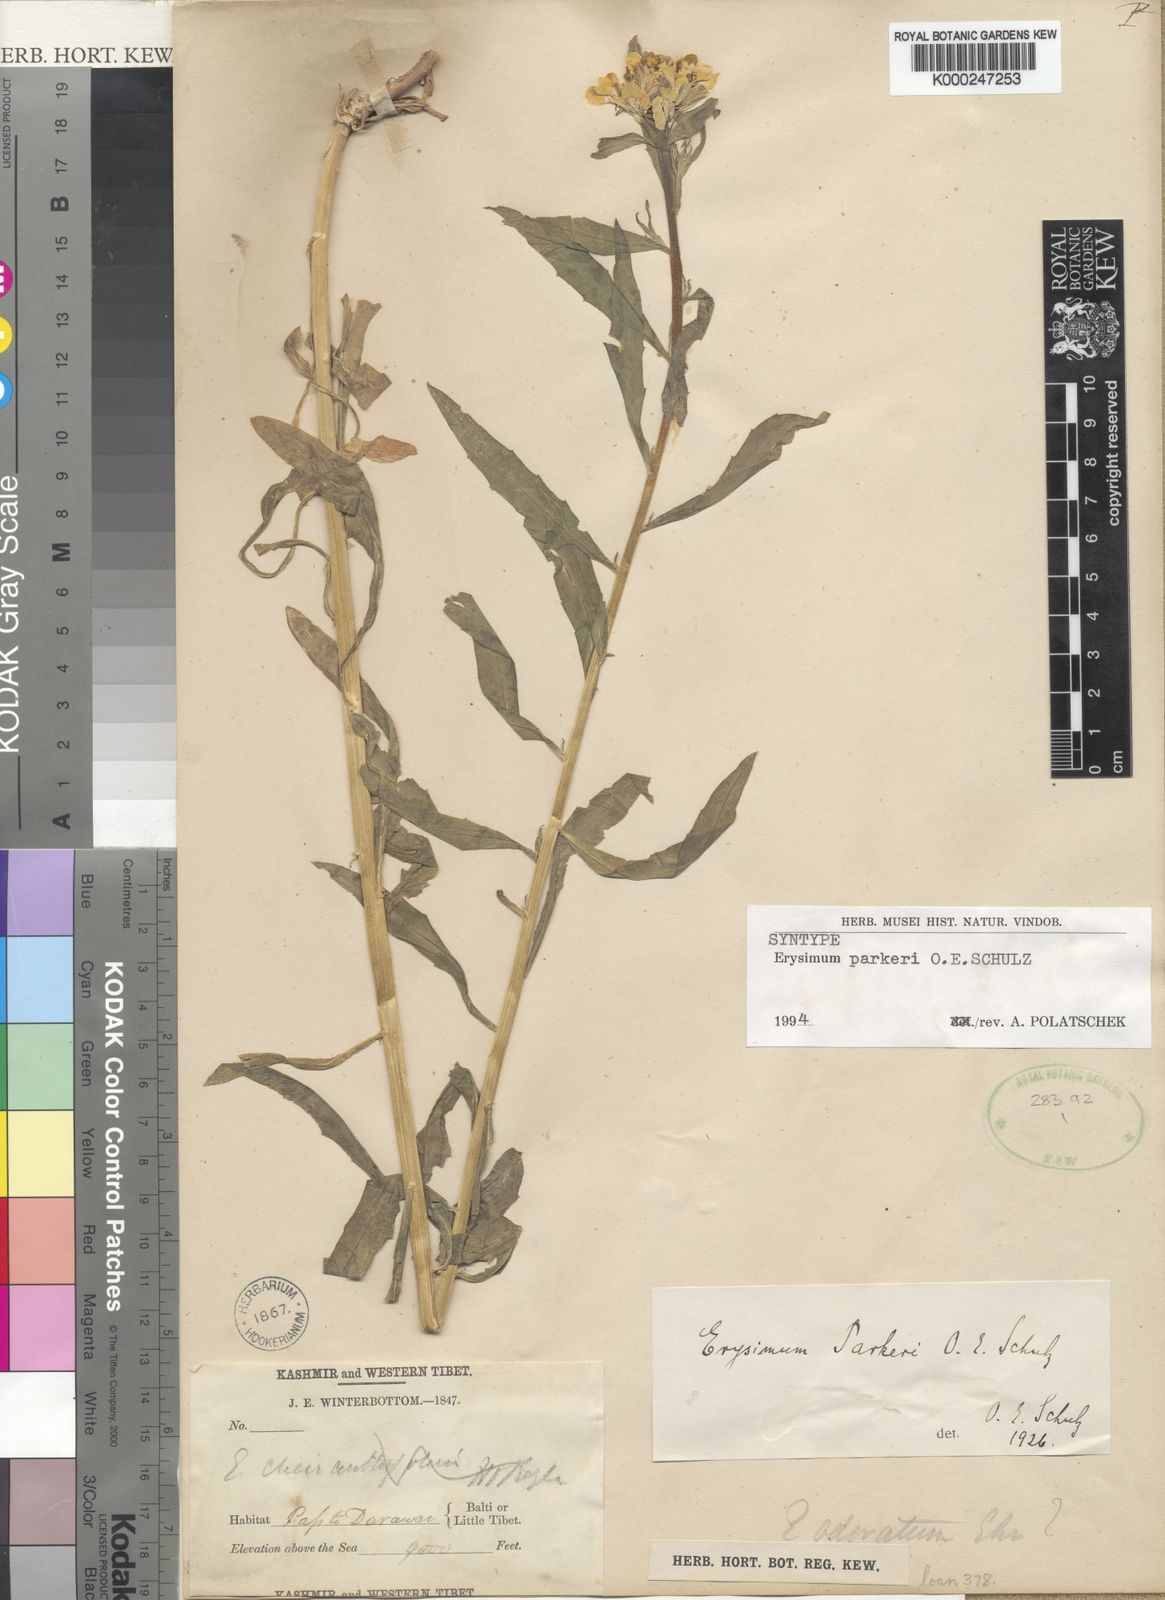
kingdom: Plantae
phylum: Tracheophyta
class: Magnoliopsida
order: Brassicales
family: Brassicaceae
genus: Erysimum
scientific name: Erysimum melicentae
